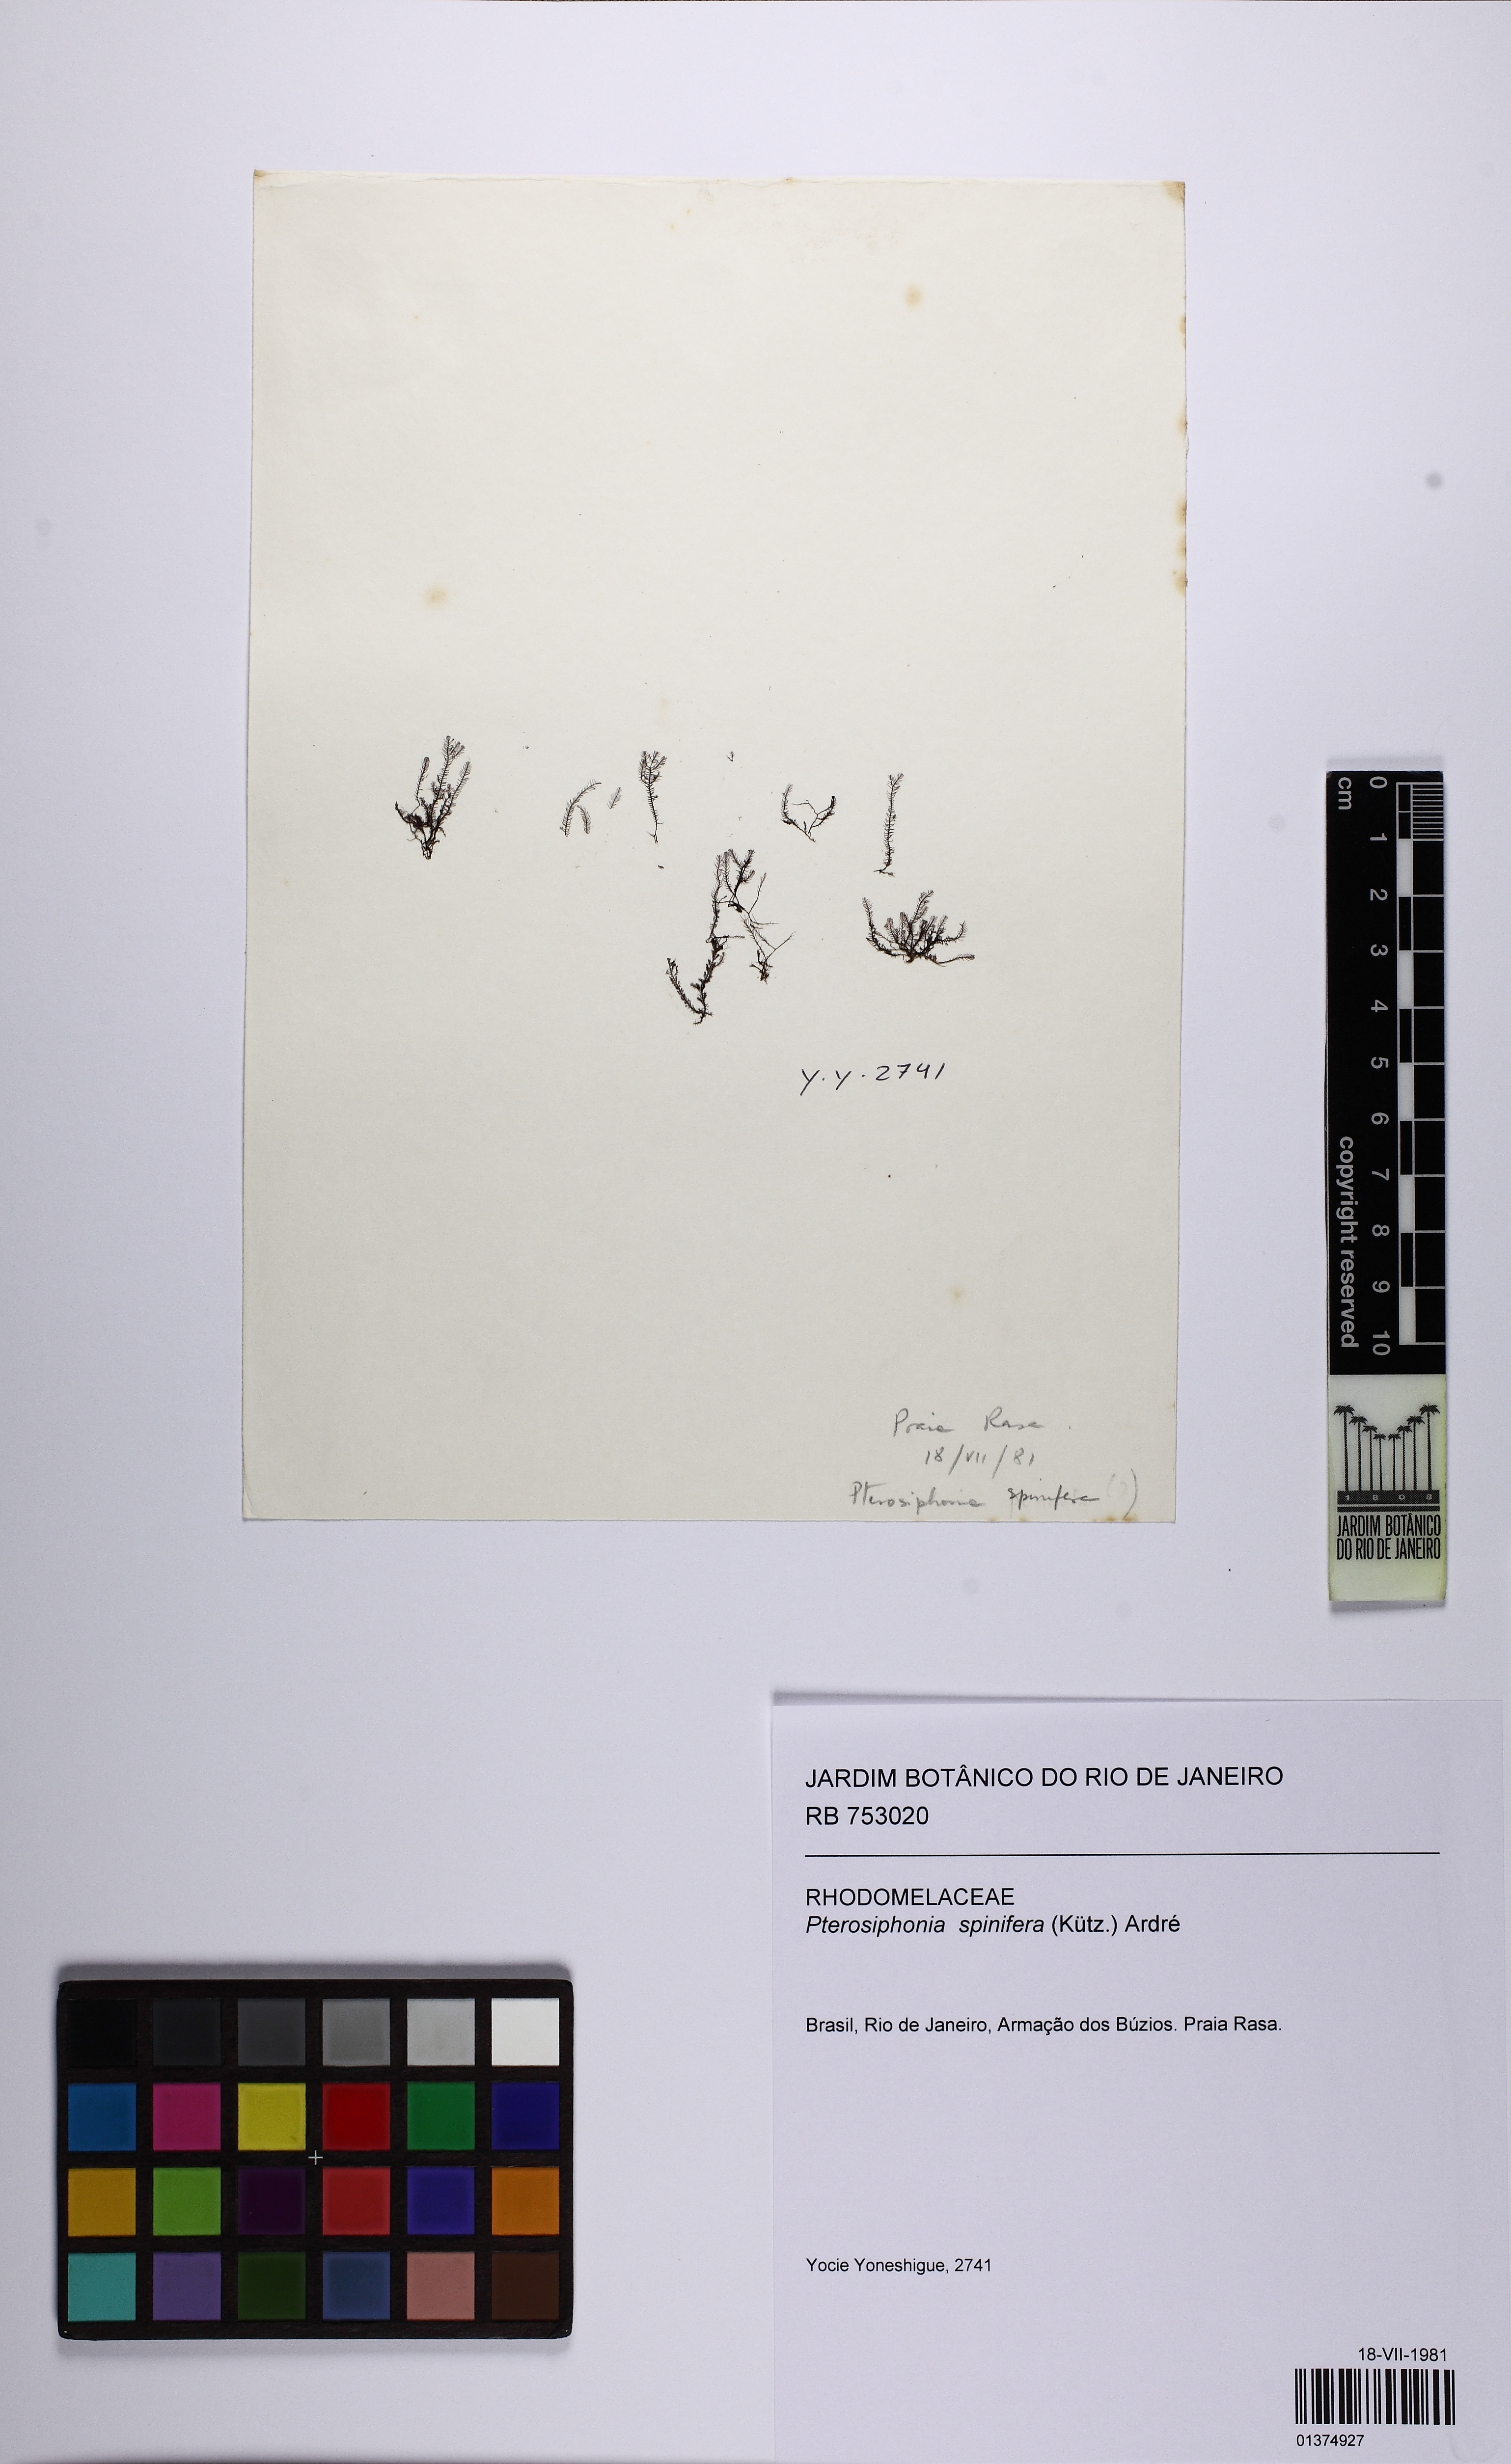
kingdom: Plantae
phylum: Rhodophyta
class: Florideophyceae
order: Ceramiales
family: Rhodomelaceae
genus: Pterosiphonia
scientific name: Pterosiphonia spinifera
